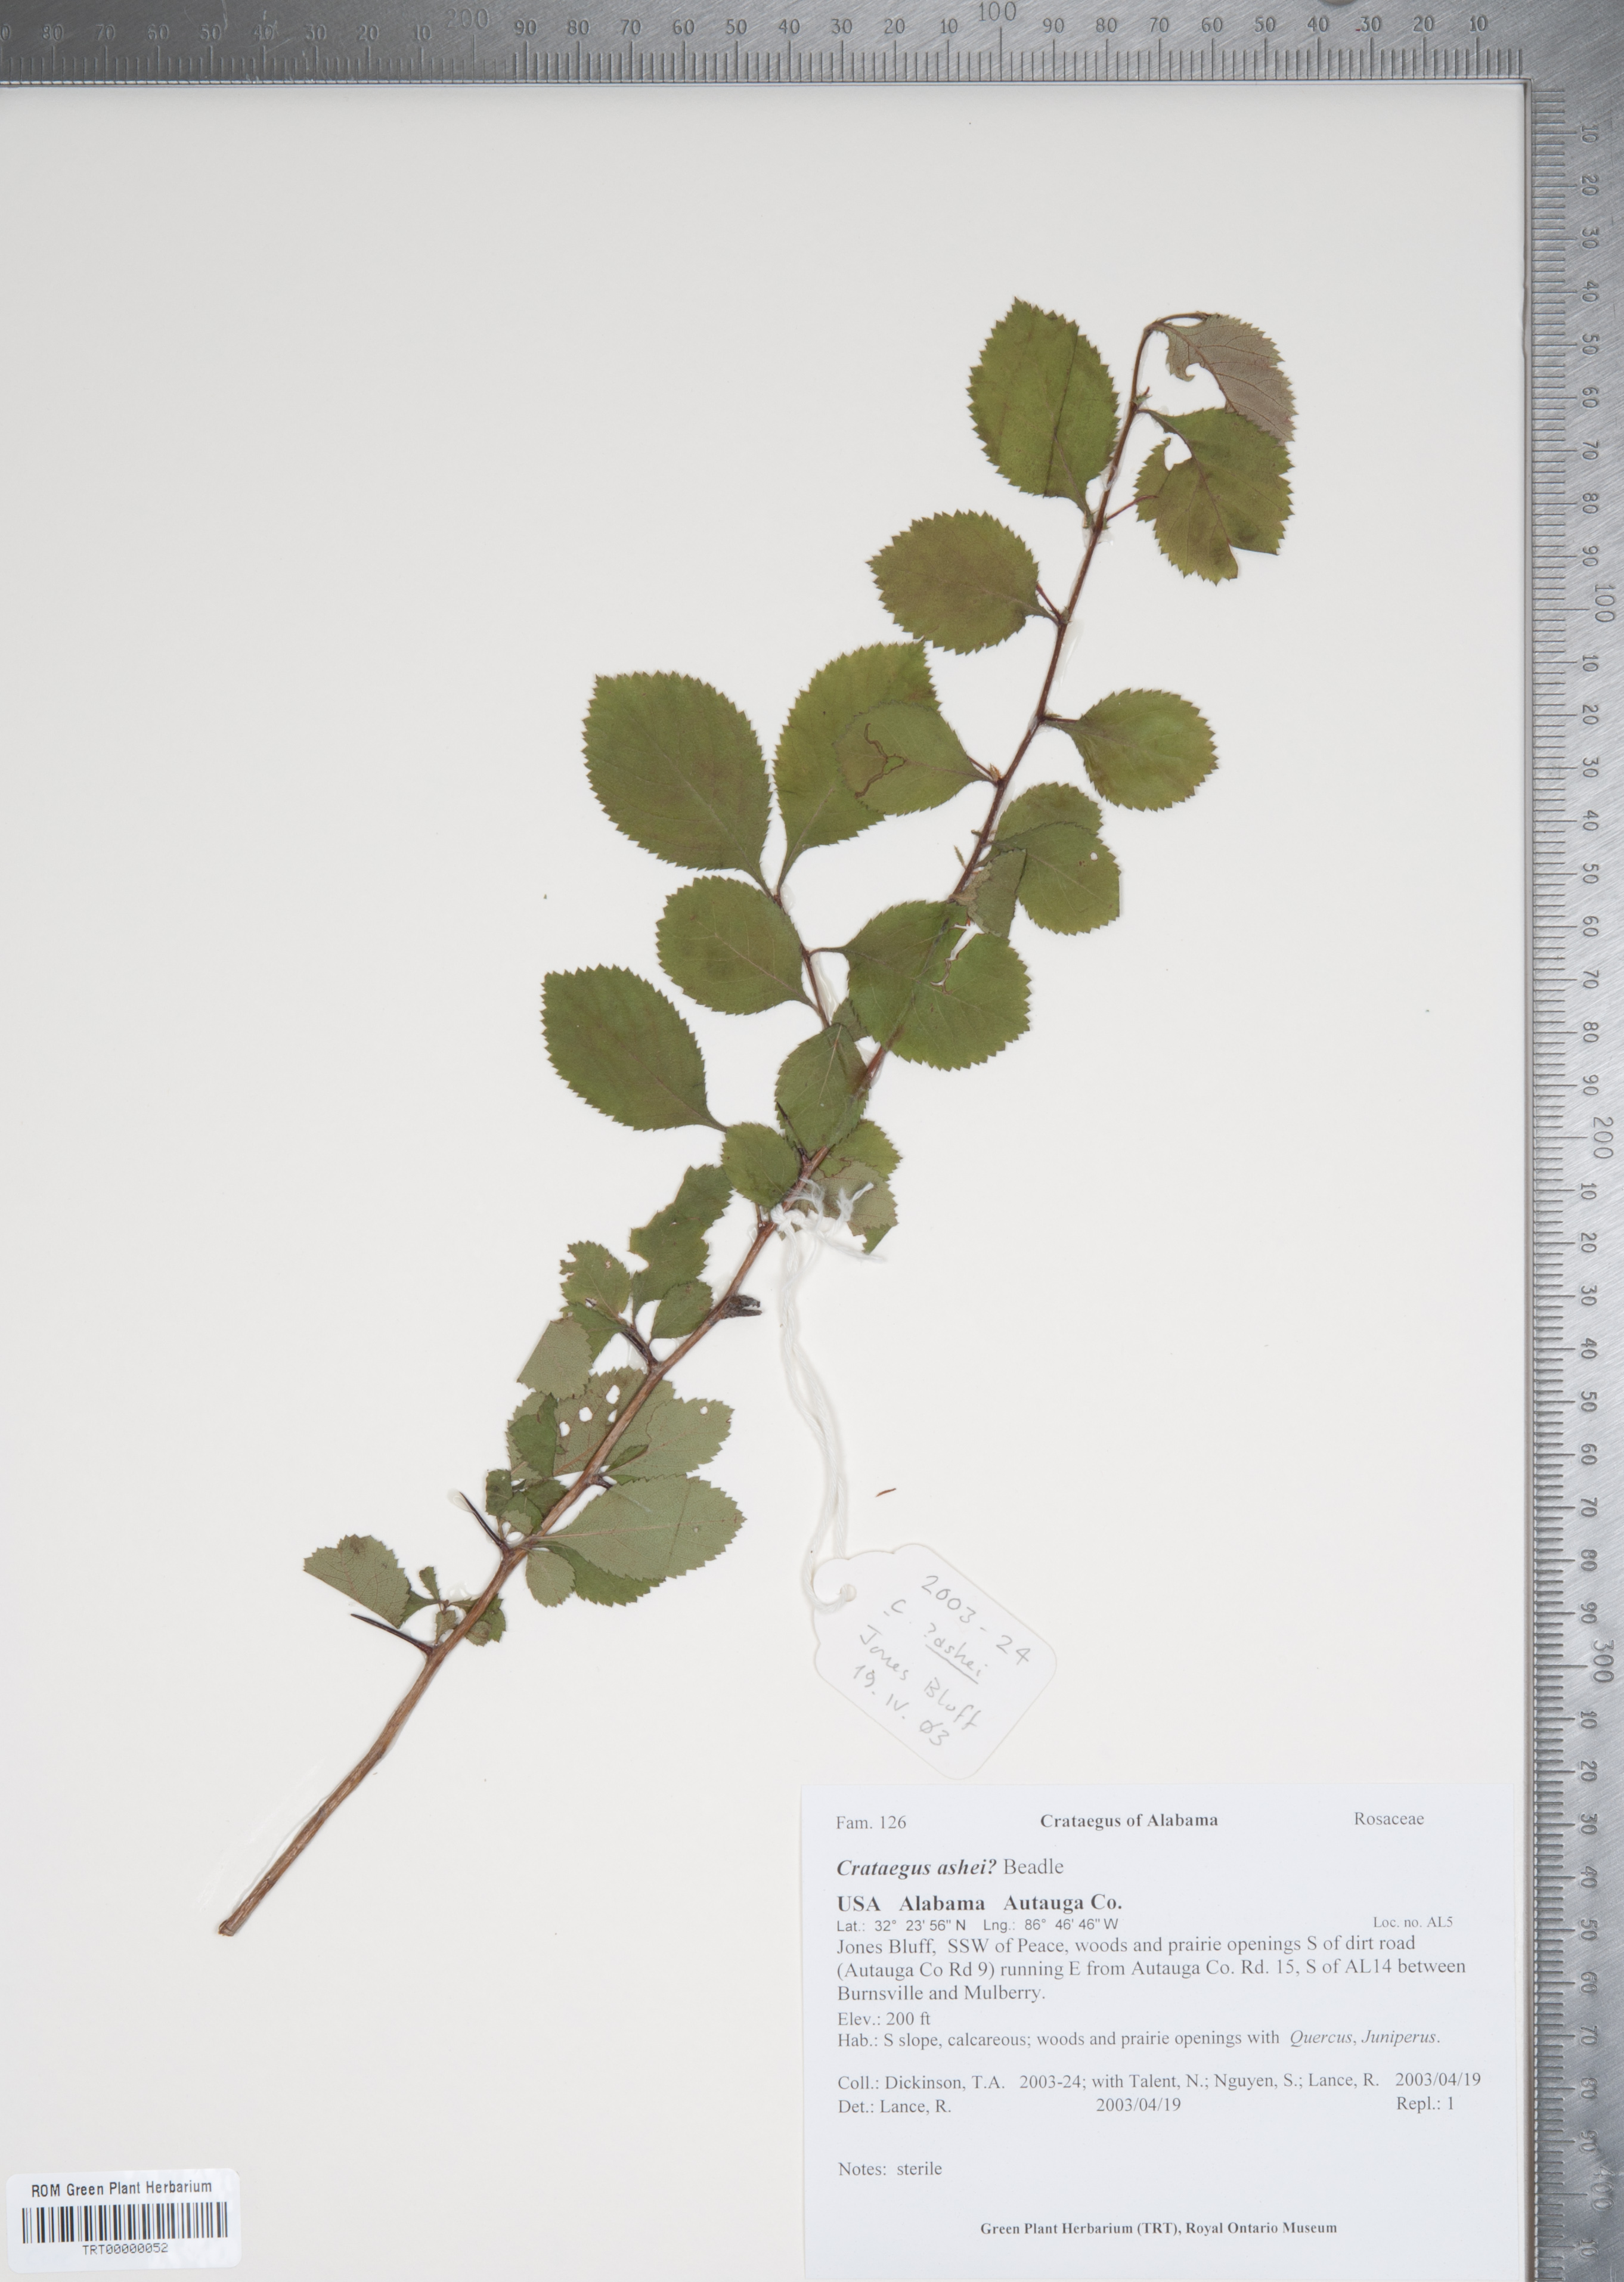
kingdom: Plantae
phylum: Tracheophyta
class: Magnoliopsida
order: Rosales
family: Rosaceae
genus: Crataegus
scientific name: Crataegus ashei
